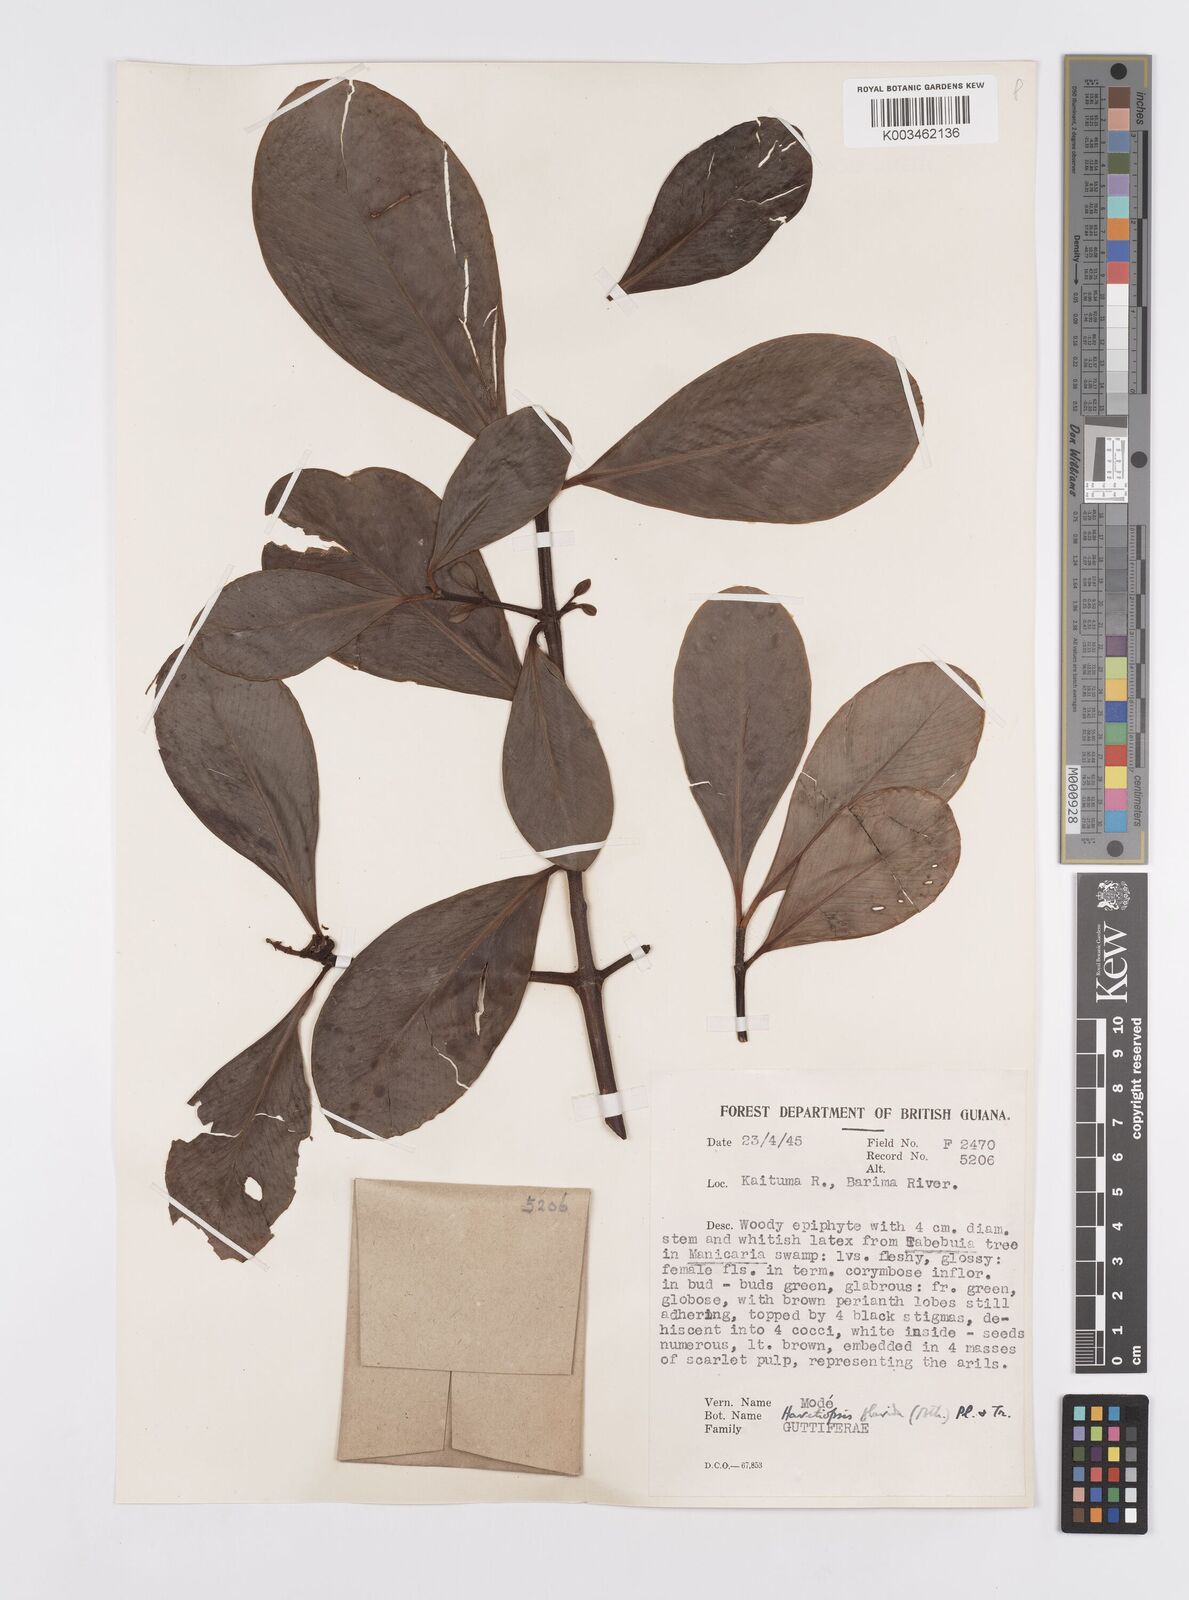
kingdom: Plantae
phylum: Tracheophyta
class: Magnoliopsida
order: Malpighiales
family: Clusiaceae
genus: Clusia
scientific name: Clusia flavida
